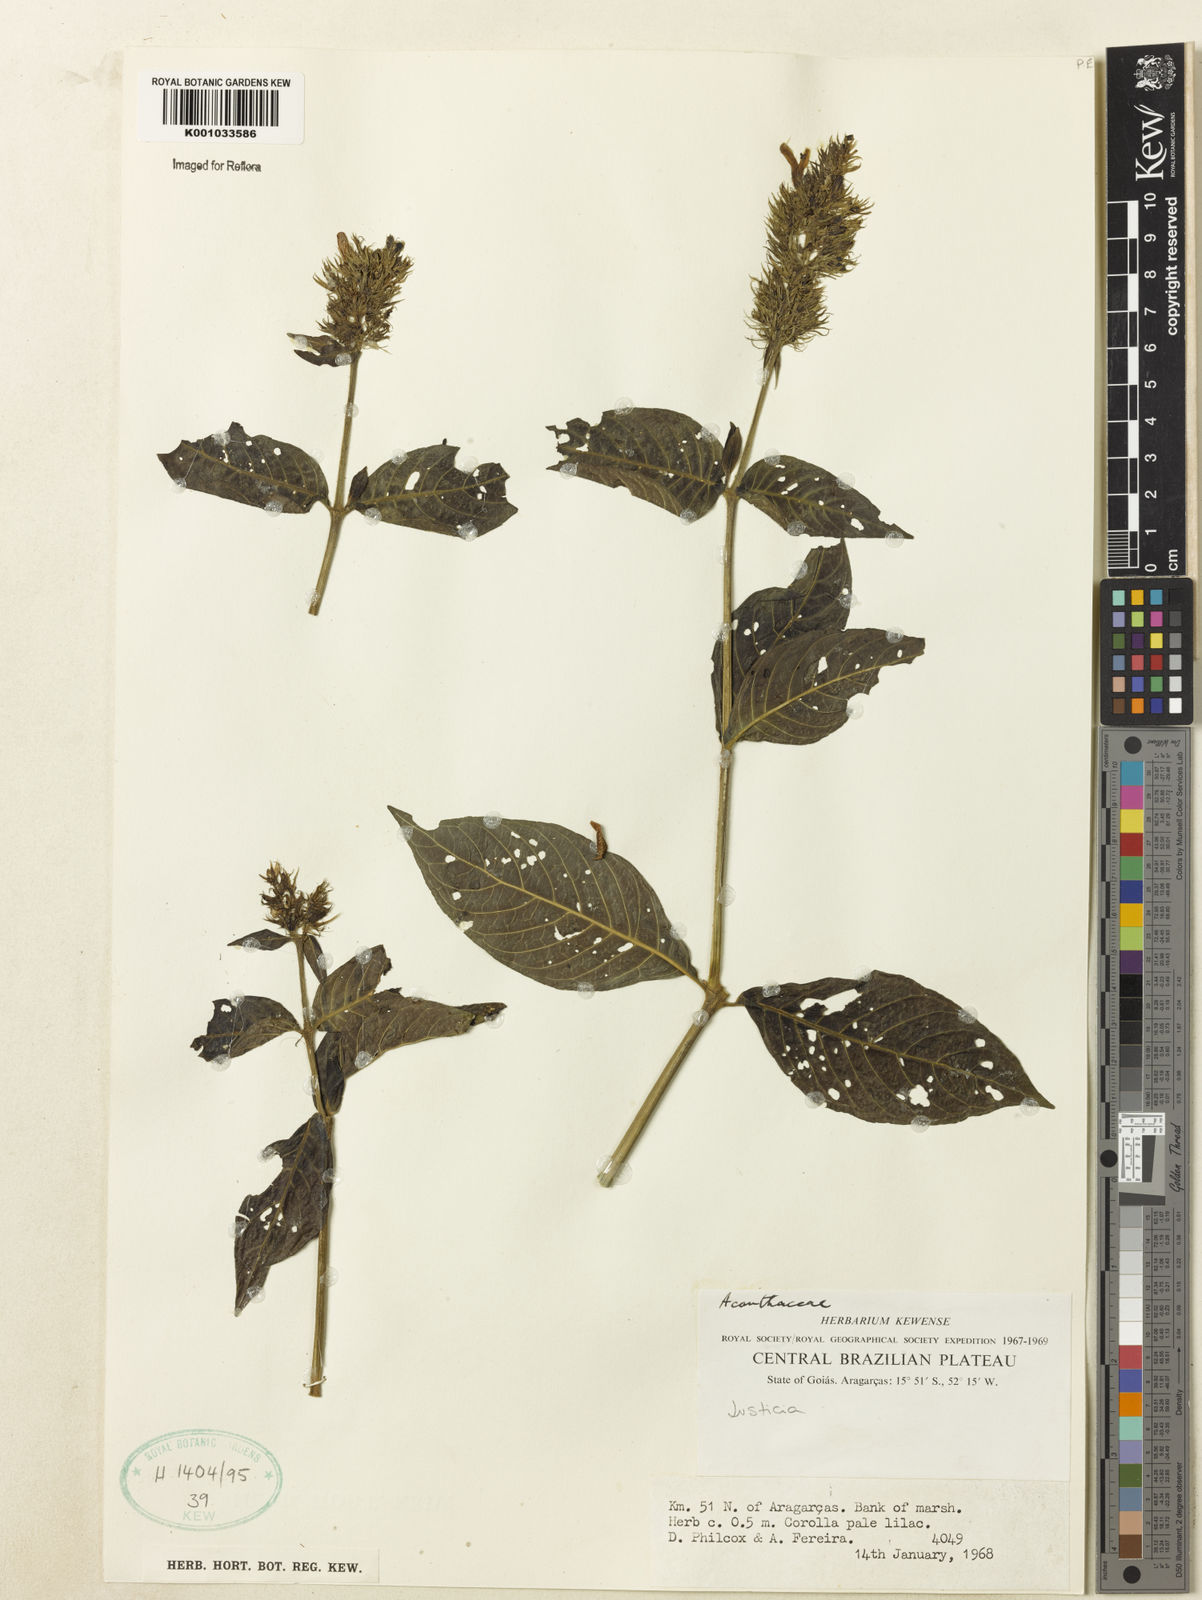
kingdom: Plantae
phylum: Tracheophyta
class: Magnoliopsida
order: Lamiales
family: Acanthaceae
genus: Justicia
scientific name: Justicia
